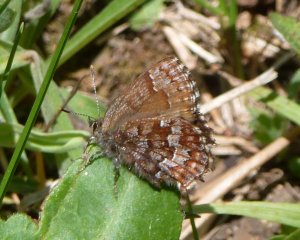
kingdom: Animalia
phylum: Arthropoda
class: Insecta
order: Lepidoptera
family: Lycaenidae
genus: Incisalia
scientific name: Incisalia niphon
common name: Eastern Pine Elfin
